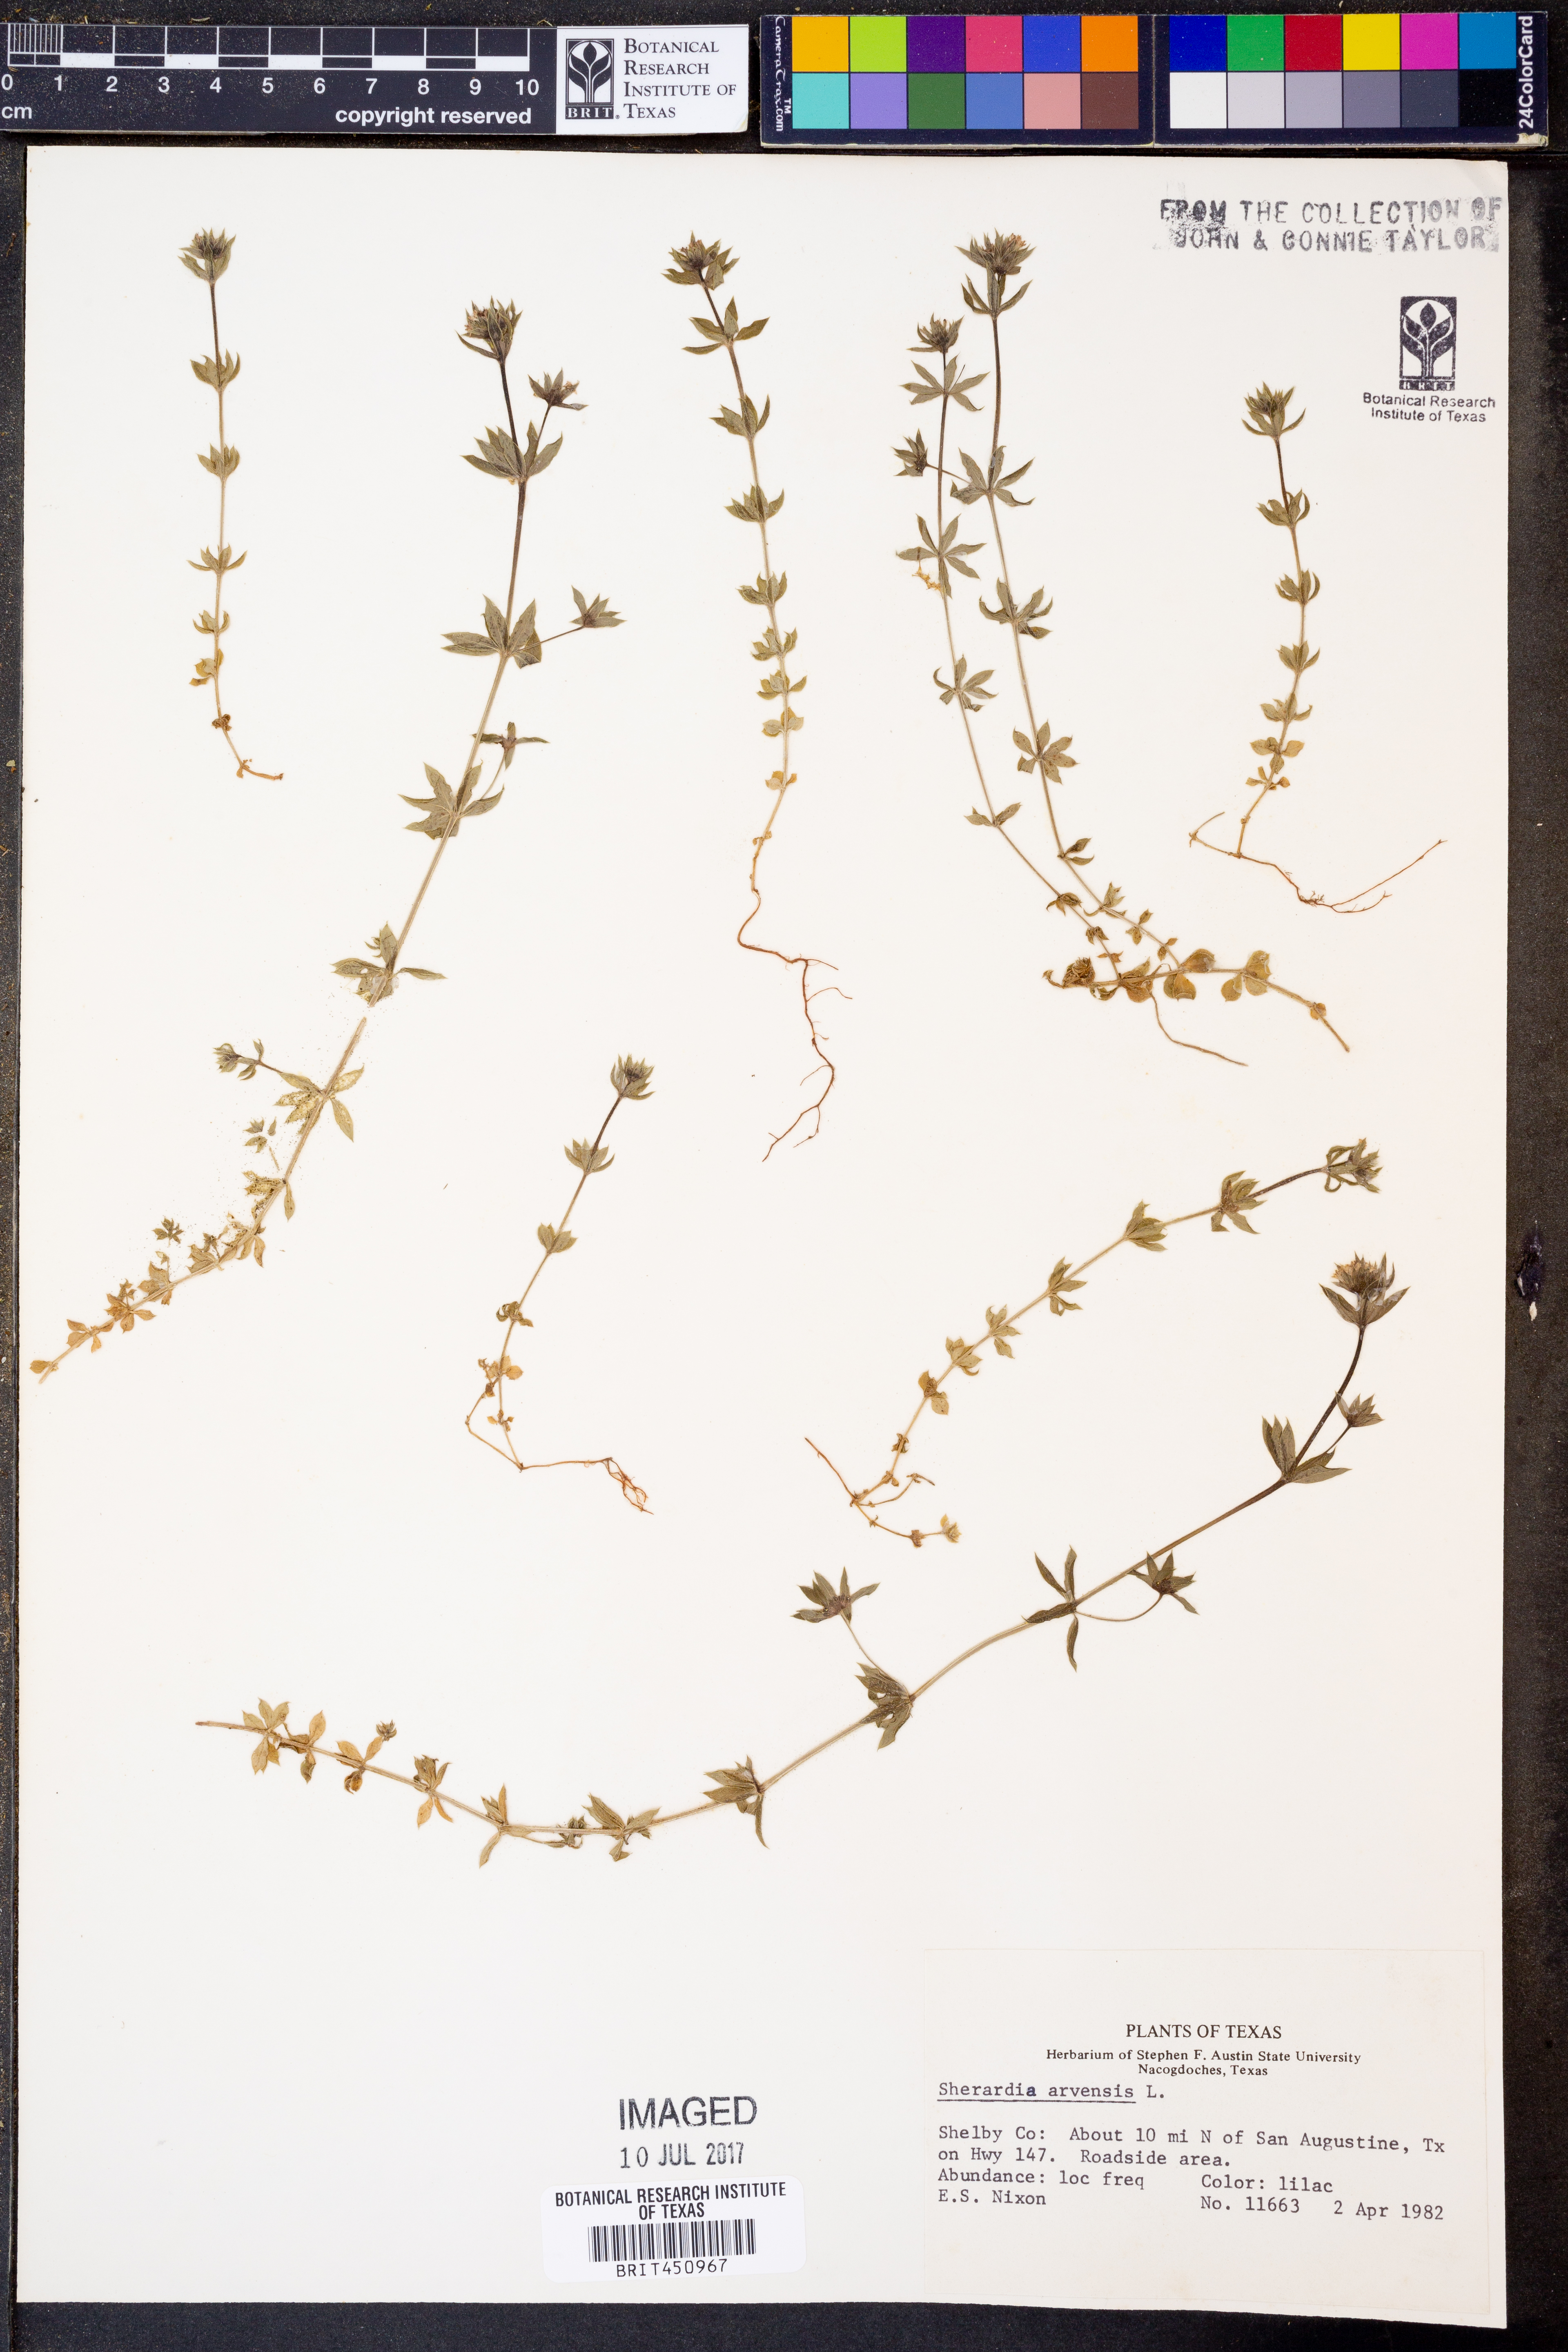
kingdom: Plantae
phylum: Tracheophyta
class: Magnoliopsida
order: Gentianales
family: Rubiaceae
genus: Sherardia
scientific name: Sherardia arvensis
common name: Field madder
